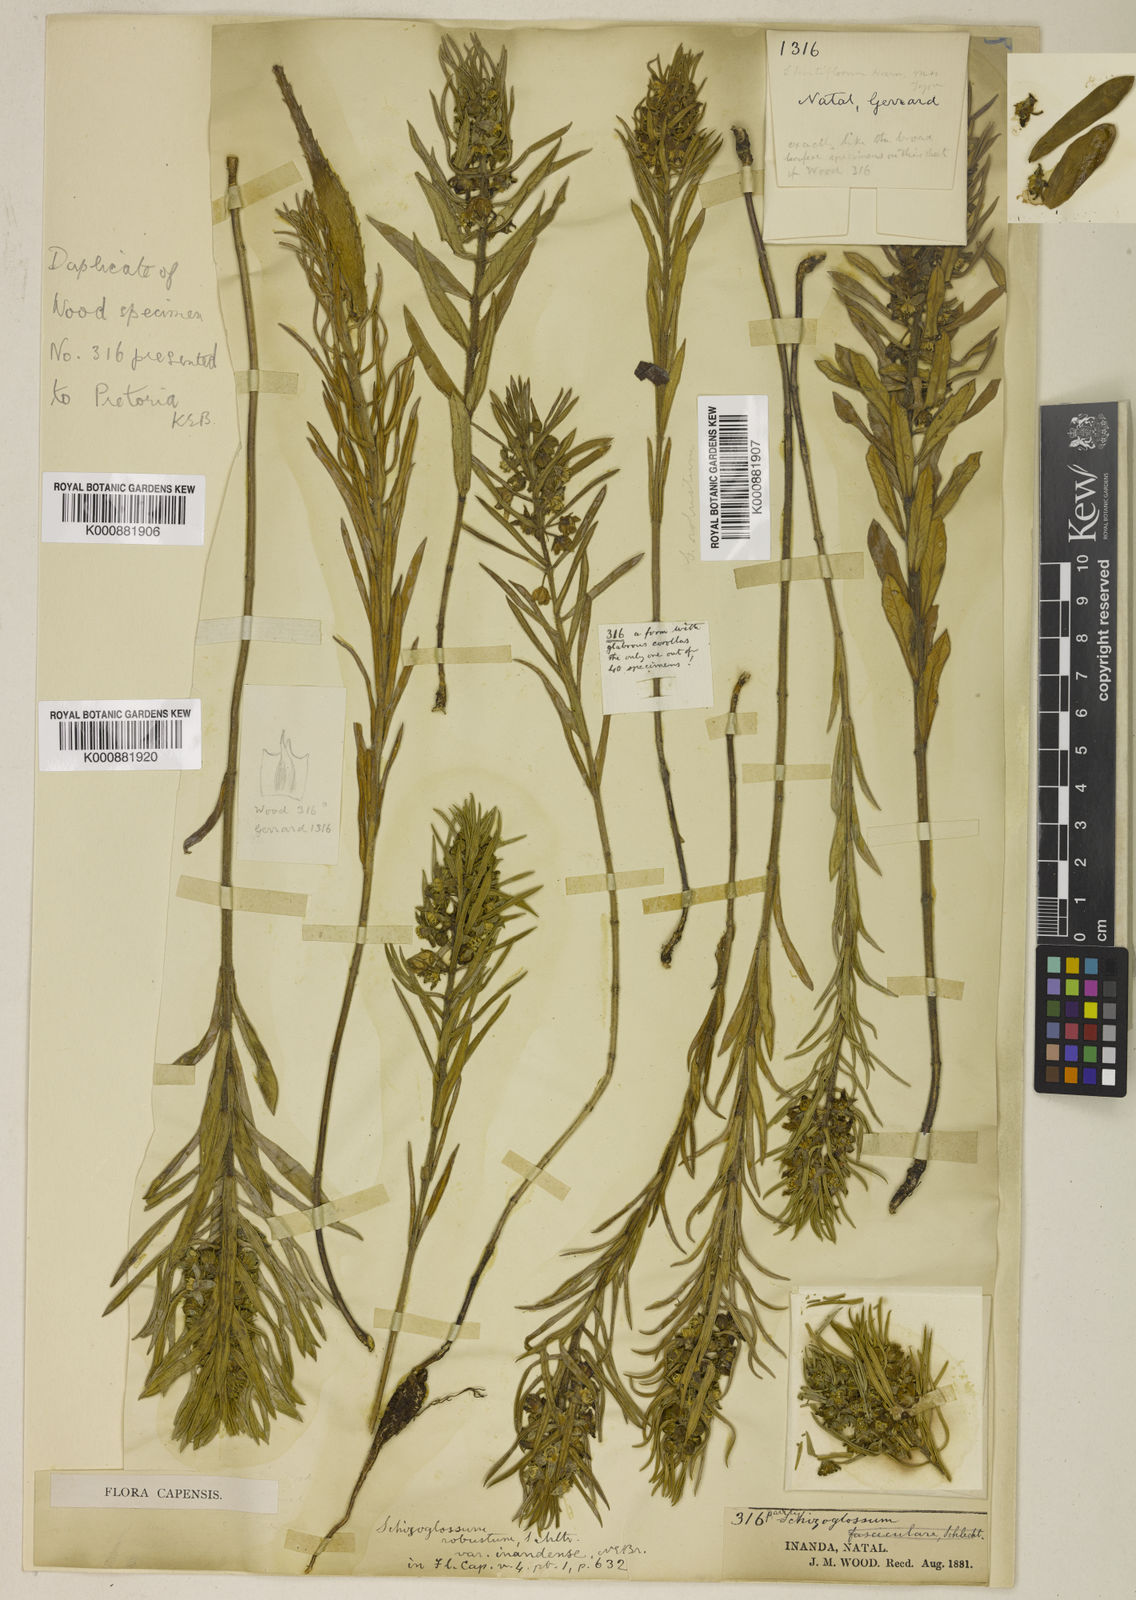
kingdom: Plantae
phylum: Tracheophyta
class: Magnoliopsida
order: Gentianales
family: Apocynaceae
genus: Aspidoglossum
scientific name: Aspidoglossum ovalifolium
